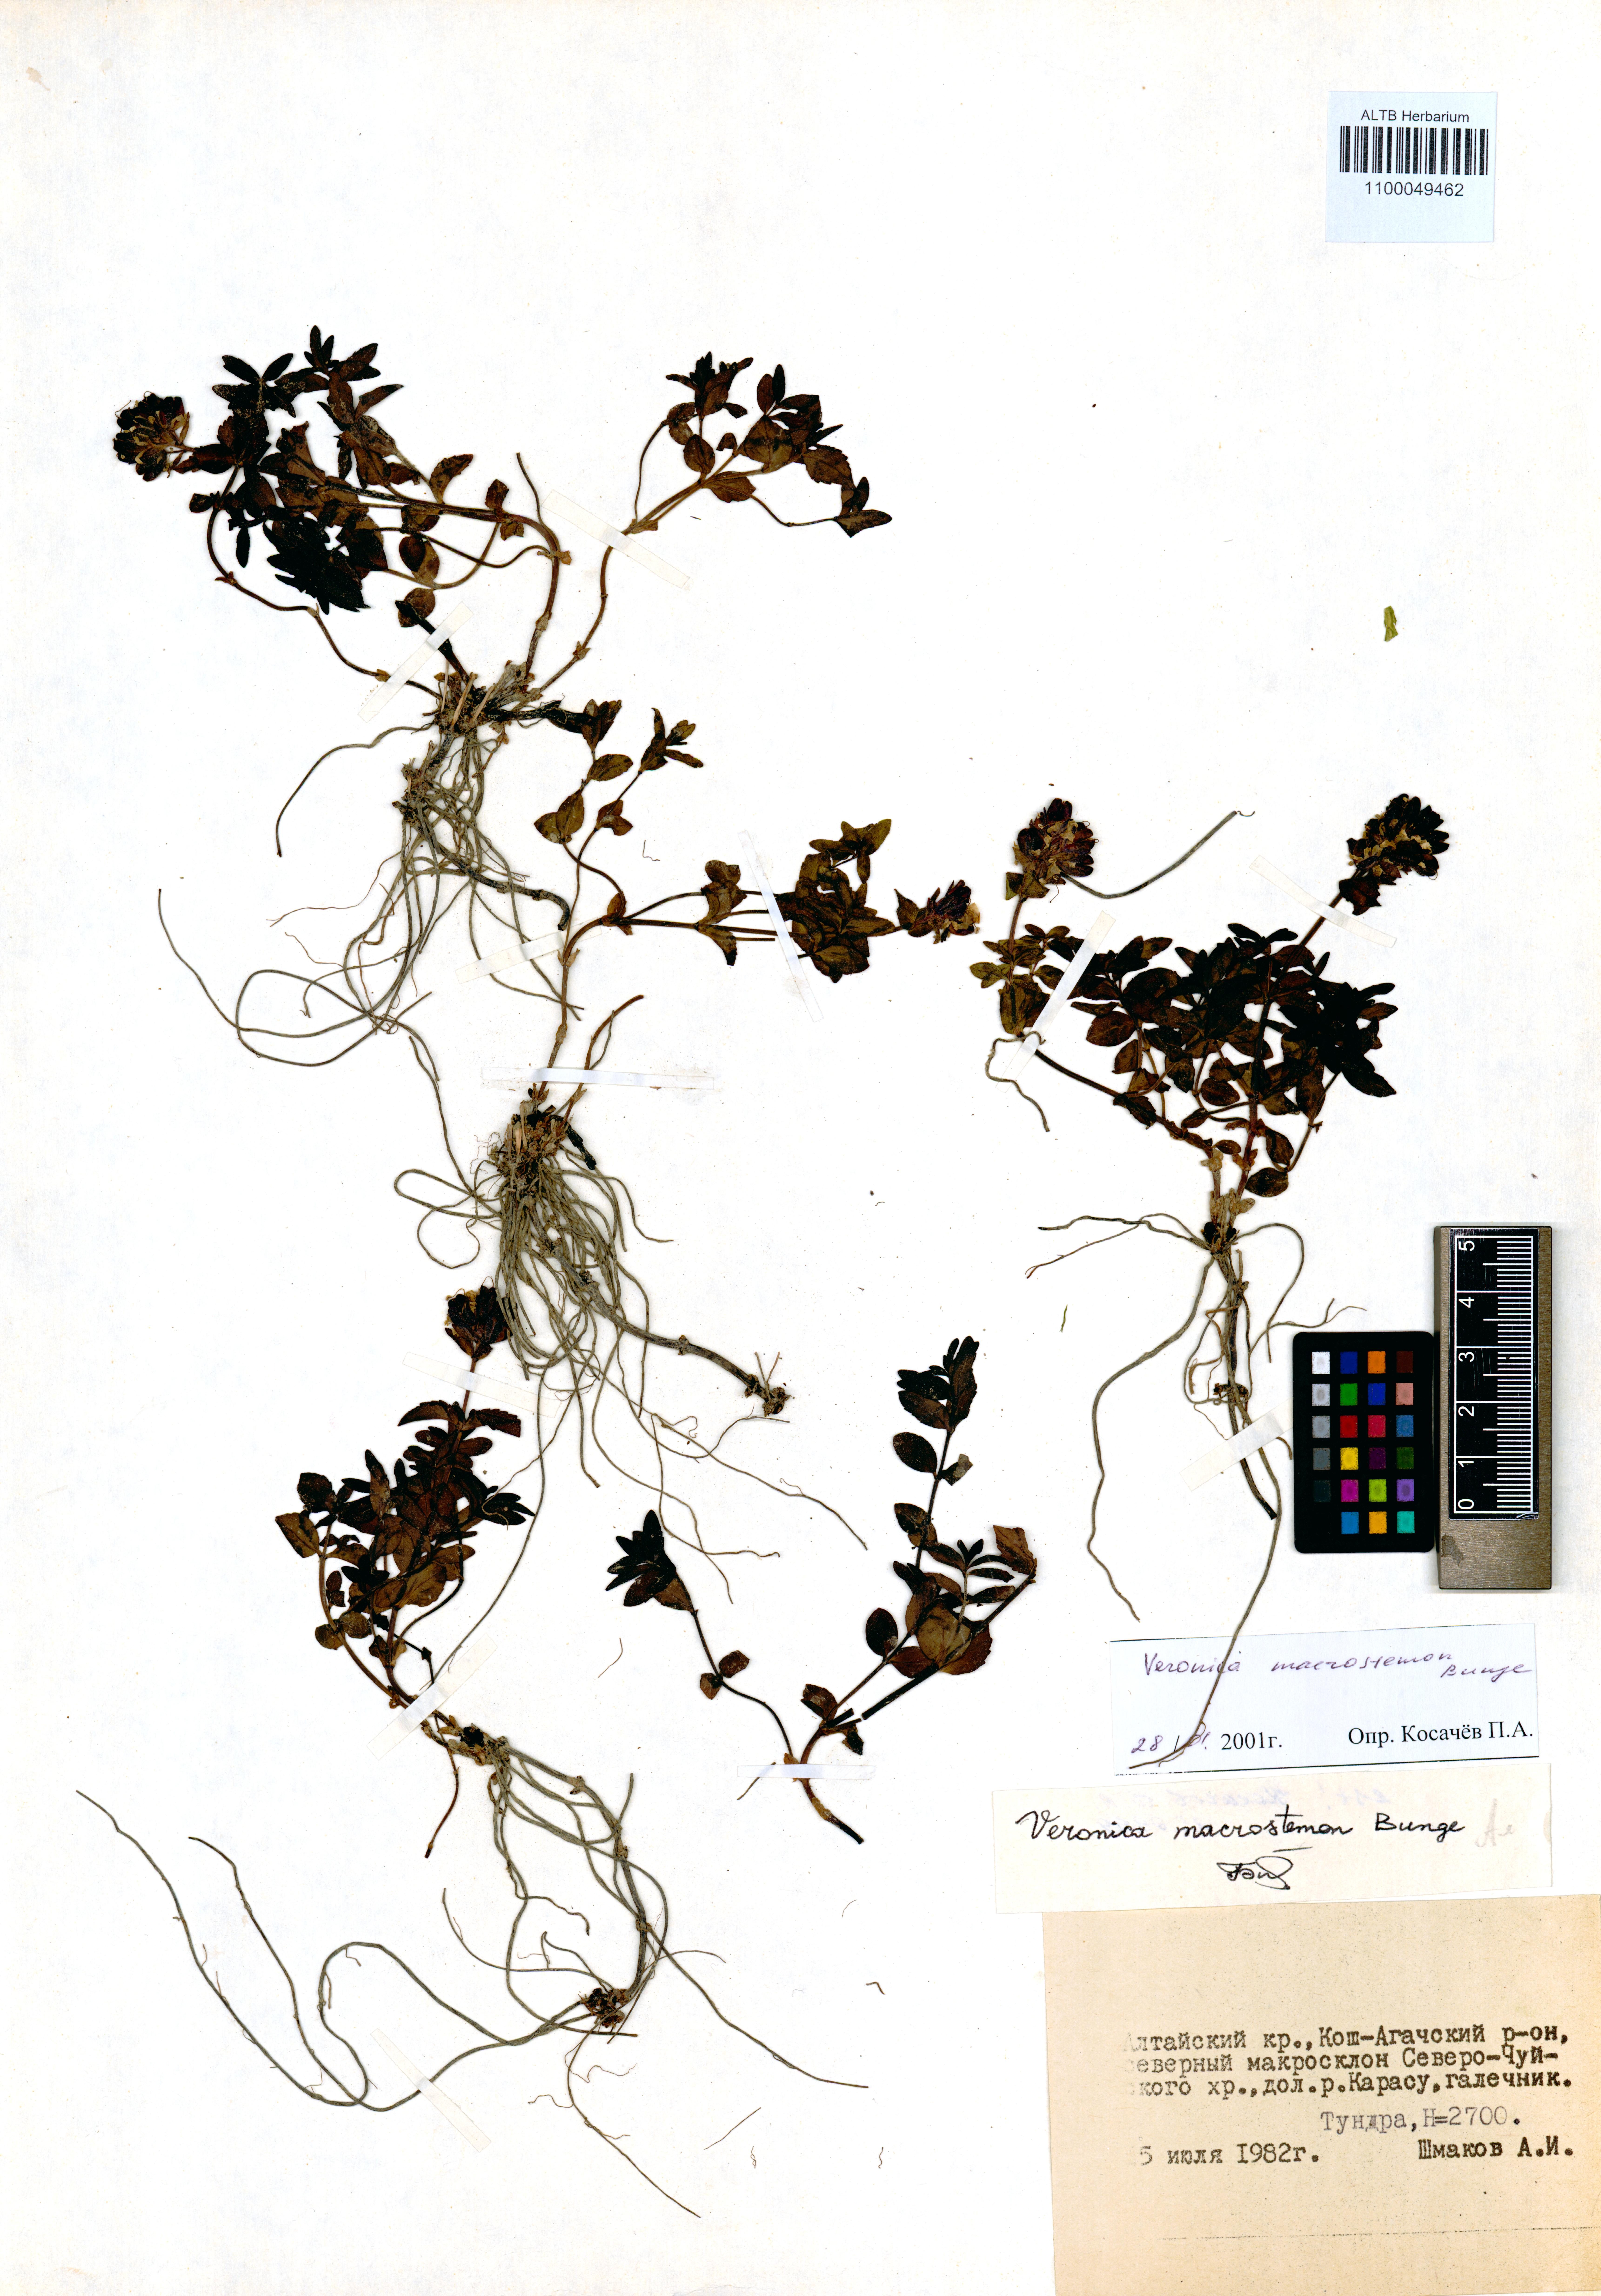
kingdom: Plantae
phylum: Tracheophyta
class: Magnoliopsida
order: Lamiales
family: Plantaginaceae
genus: Veronica
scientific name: Veronica macrostemon
